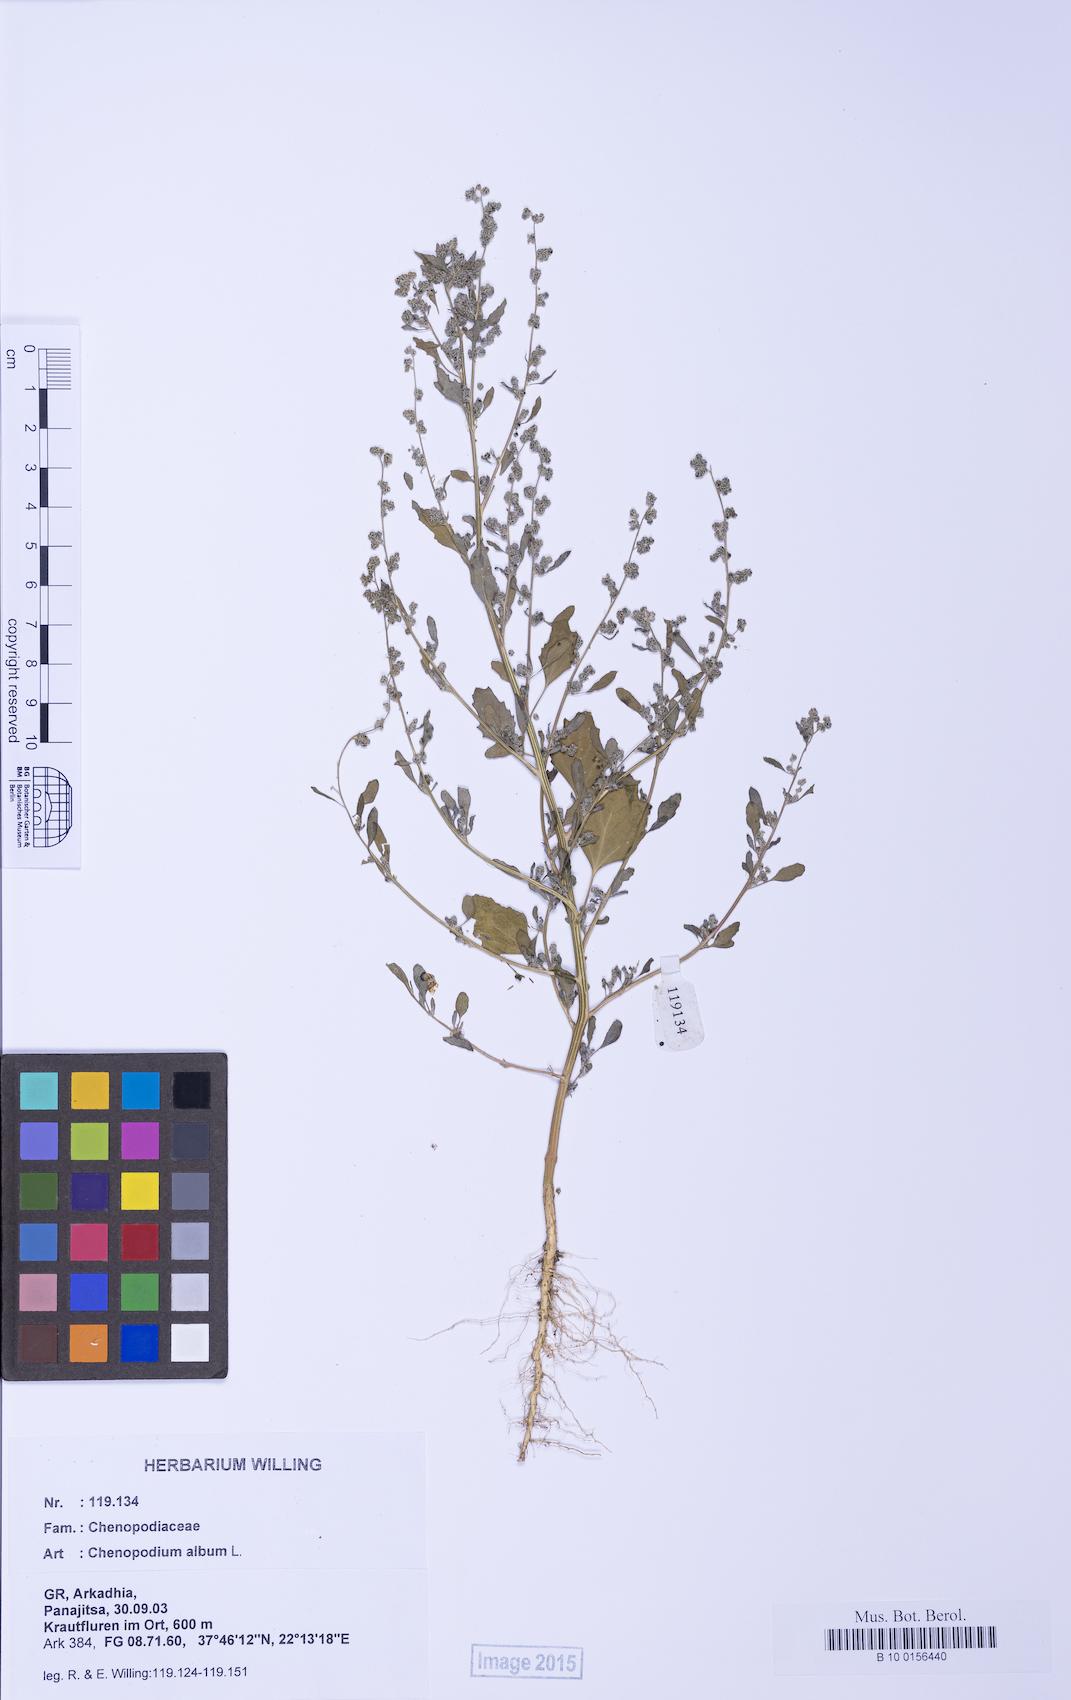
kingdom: Plantae
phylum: Tracheophyta
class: Magnoliopsida
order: Caryophyllales
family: Amaranthaceae
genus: Chenopodium
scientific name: Chenopodium album
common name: Fat-hen
